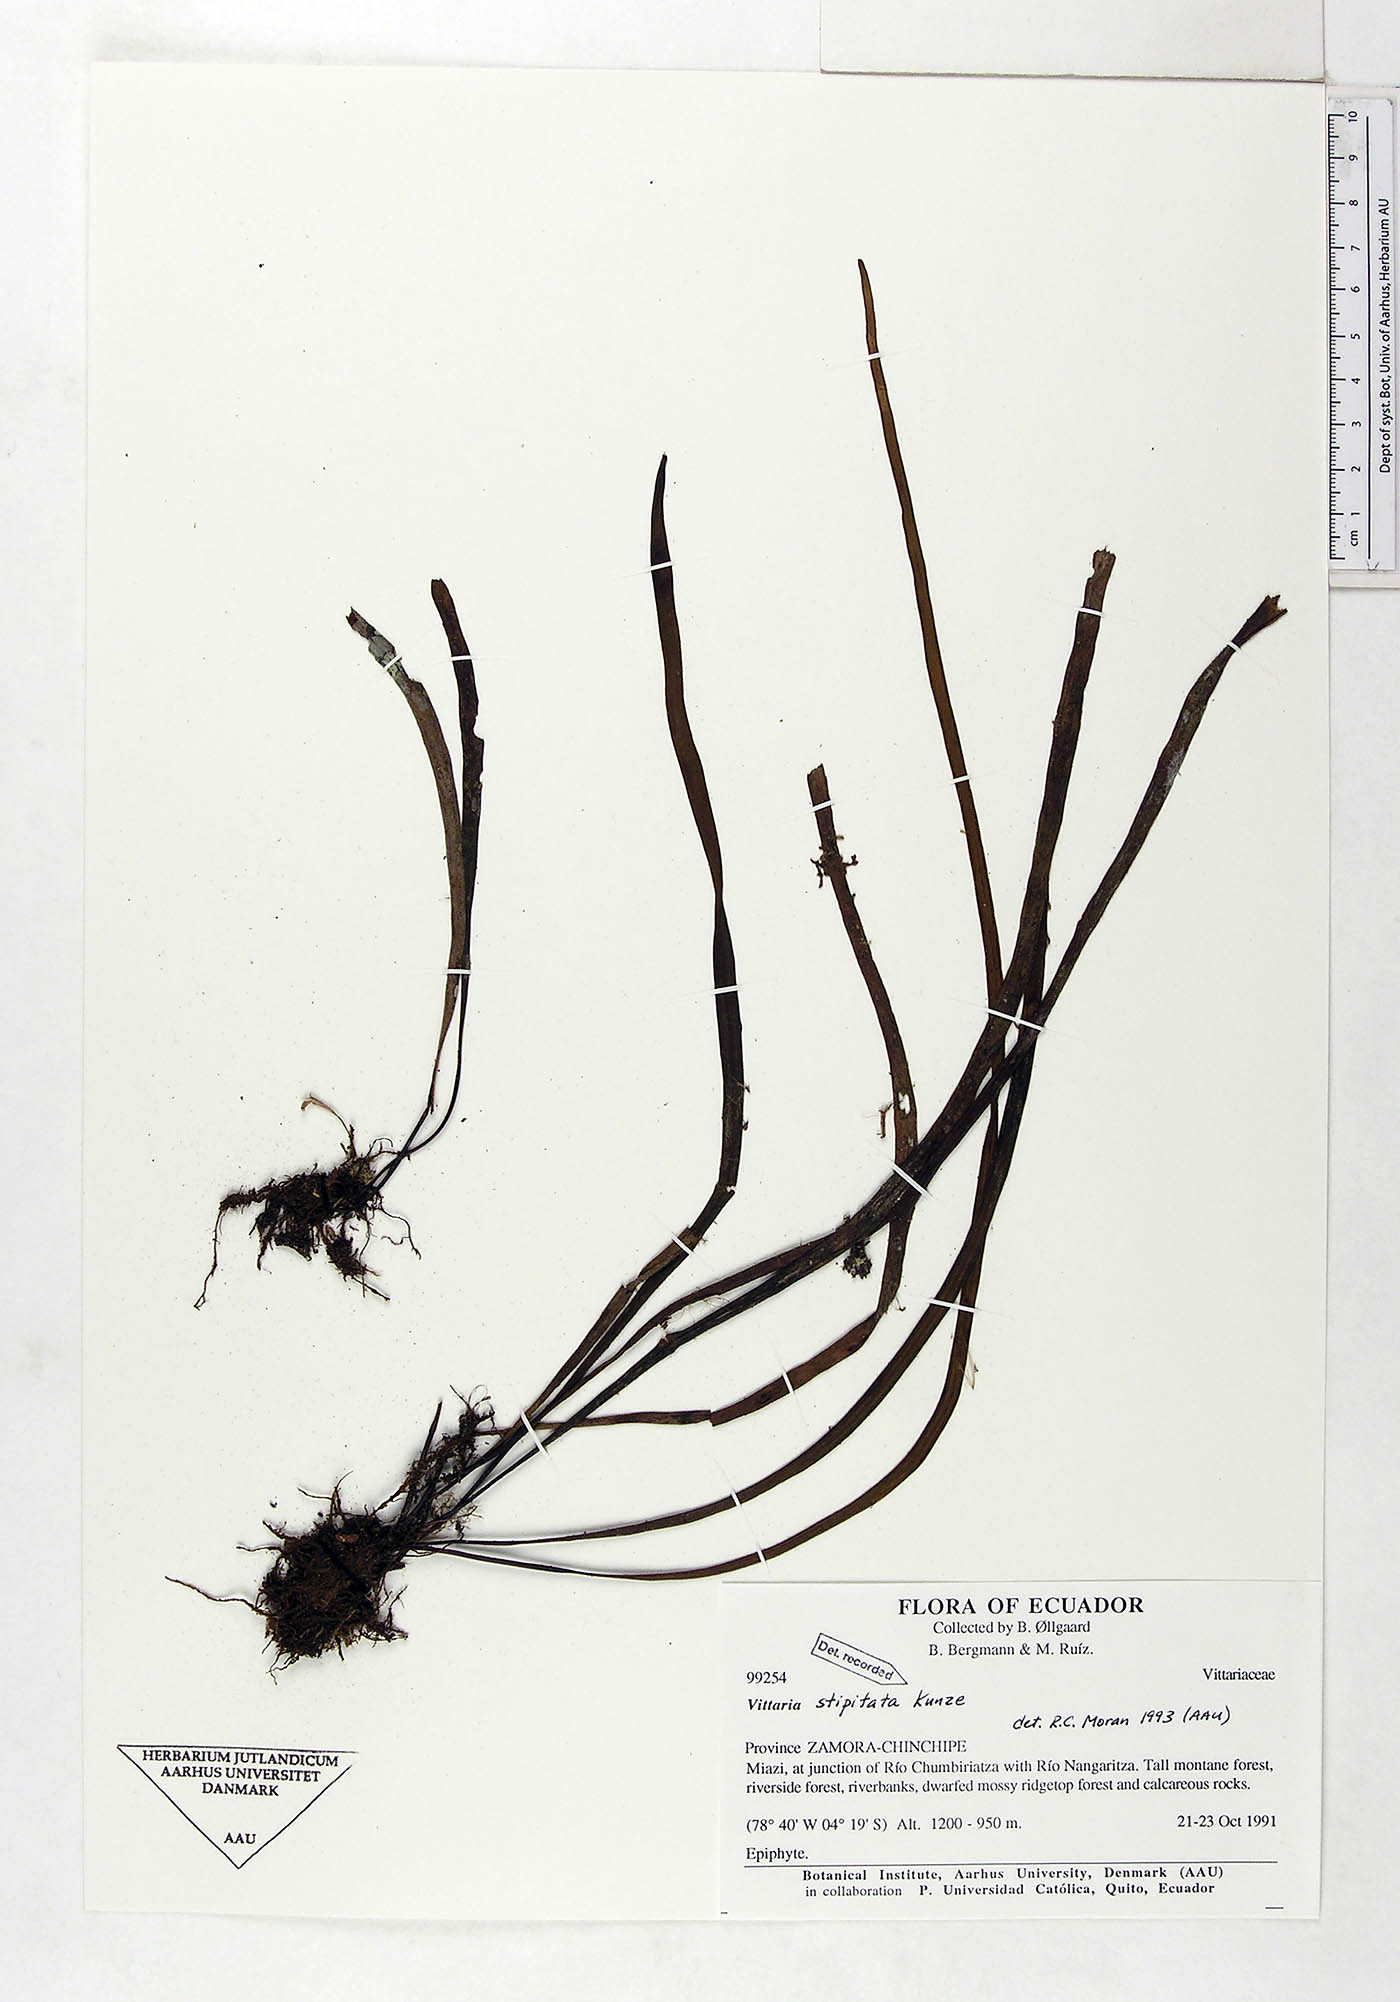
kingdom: Plantae
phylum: Tracheophyta
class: Polypodiopsida
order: Polypodiales
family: Pteridaceae
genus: Radiovittaria
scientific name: Radiovittaria stipitata
